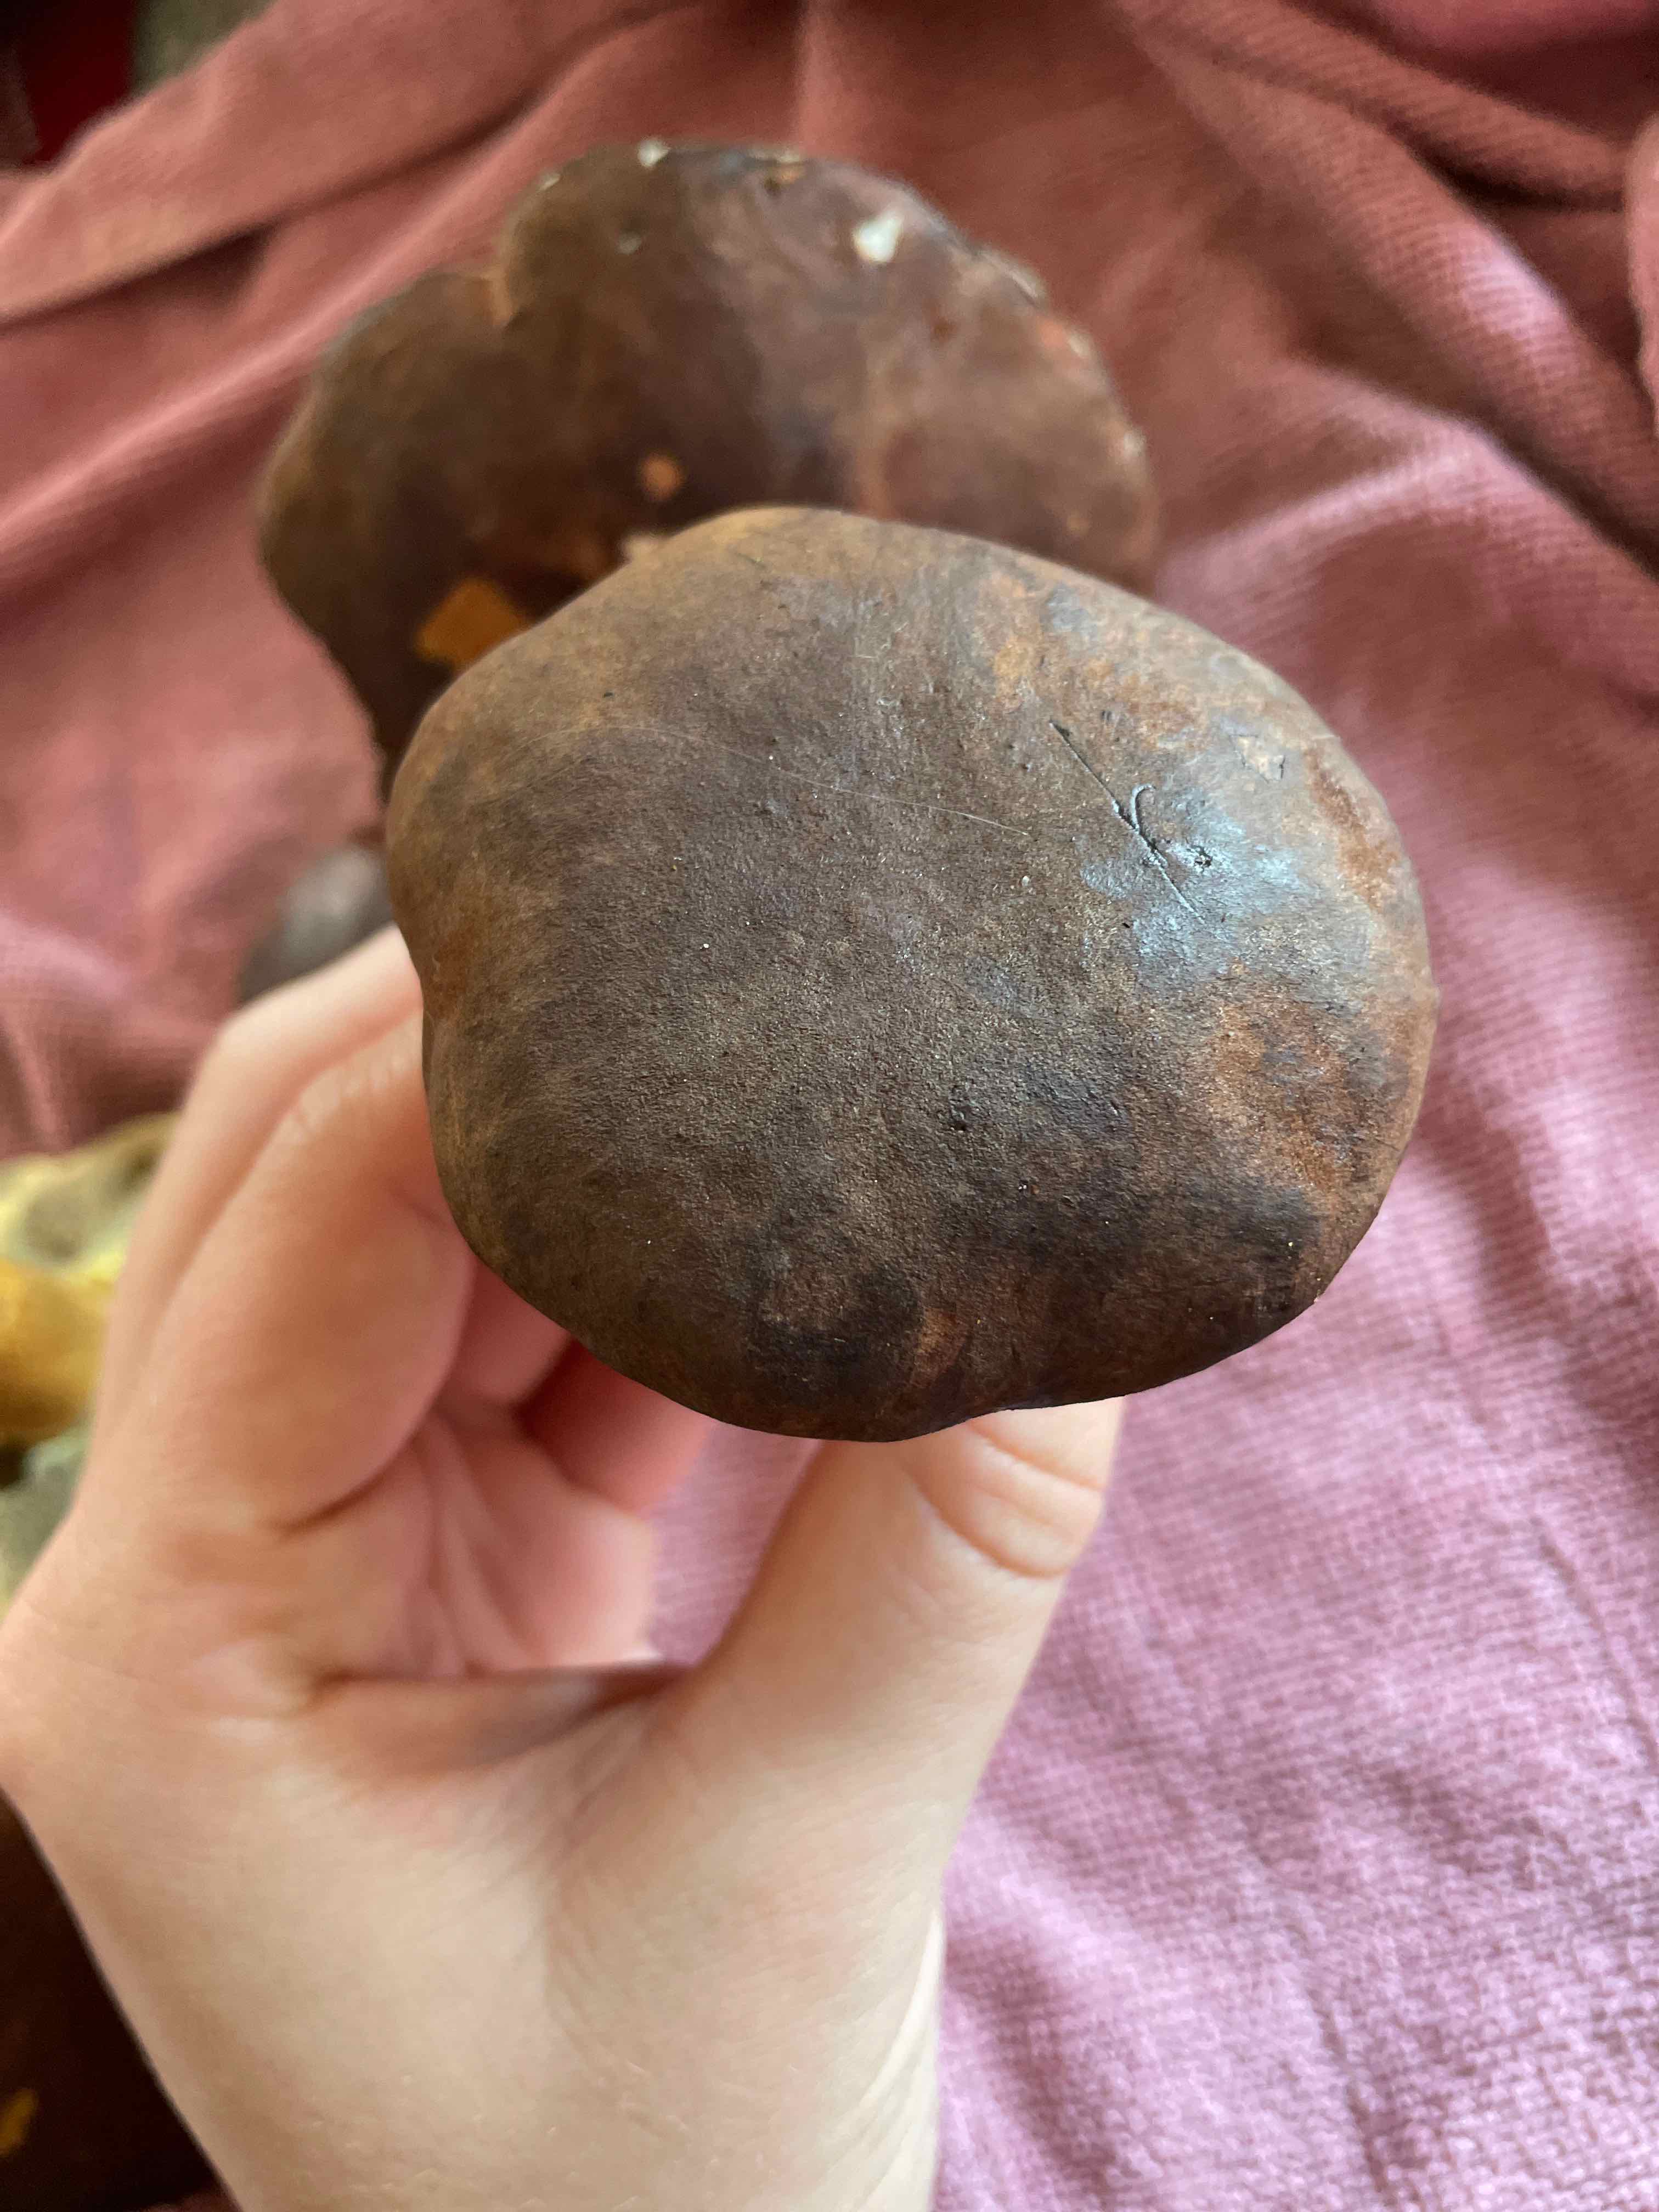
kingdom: Fungi
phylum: Basidiomycota
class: Agaricomycetes
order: Boletales
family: Boletaceae
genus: Imleria
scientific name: Imleria badia
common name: brunstokket rørhat
